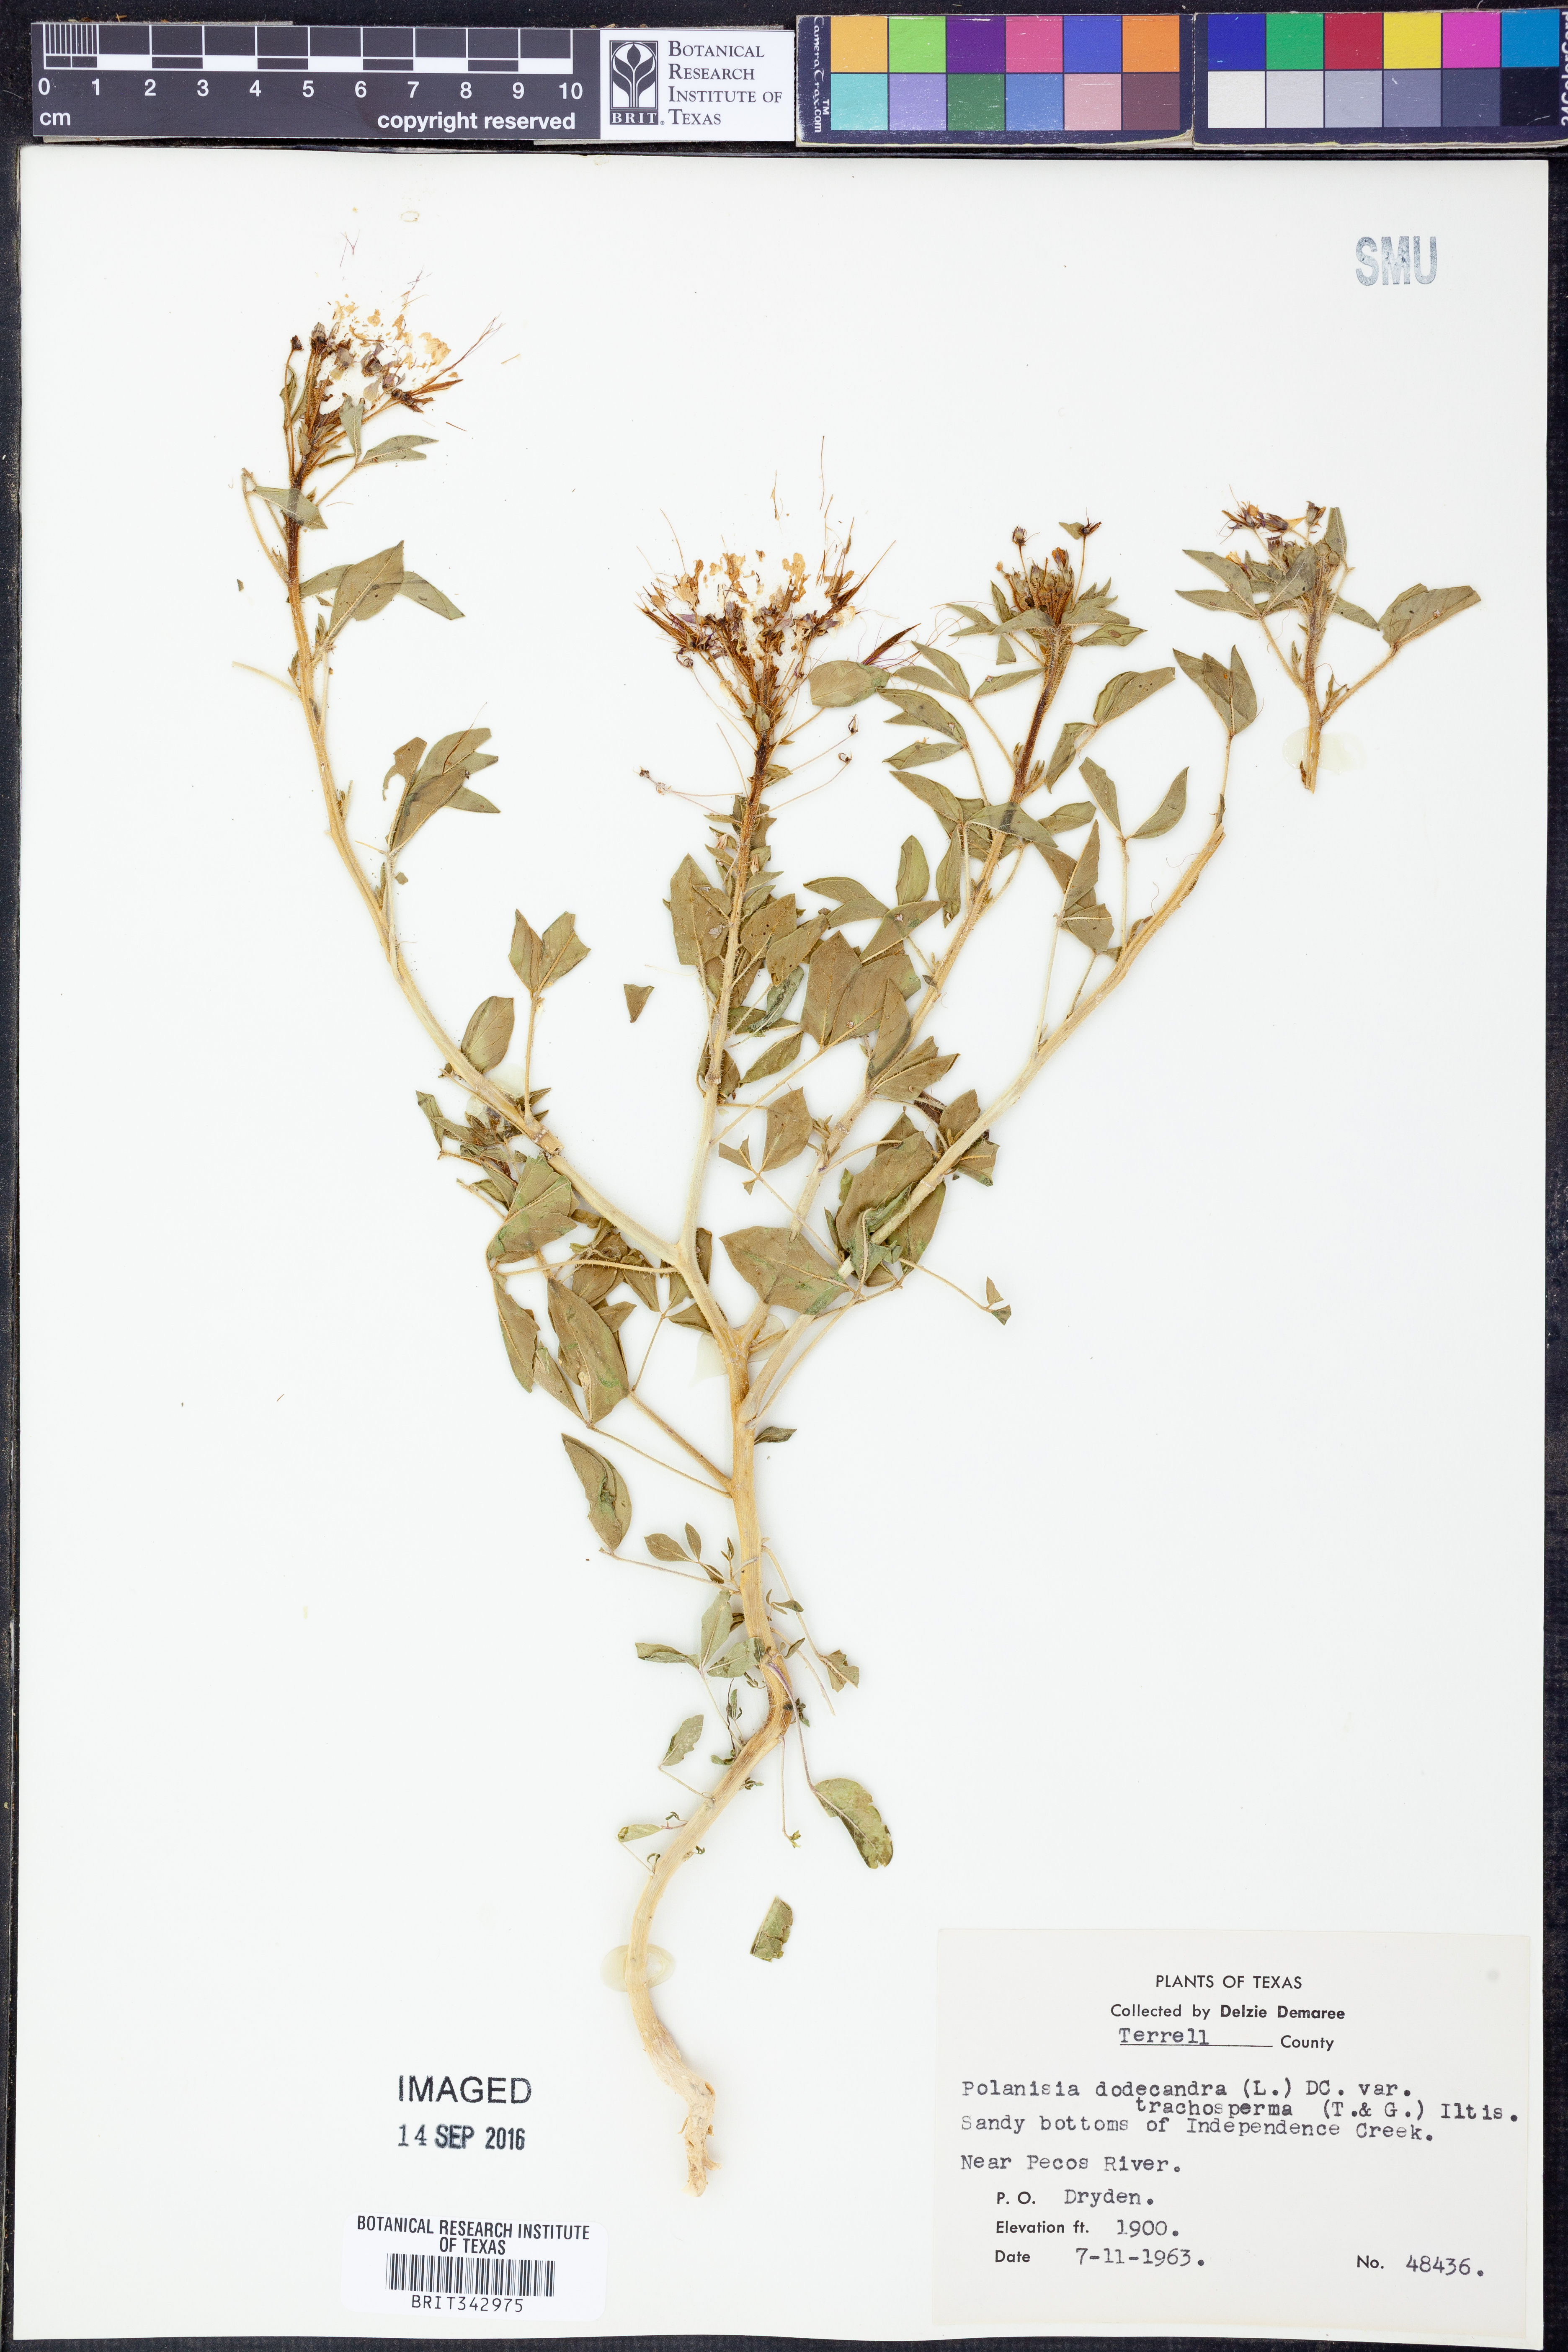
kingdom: Plantae
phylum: Tracheophyta
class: Magnoliopsida
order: Brassicales
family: Cleomaceae
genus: Polanisia
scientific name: Polanisia trachysperma
